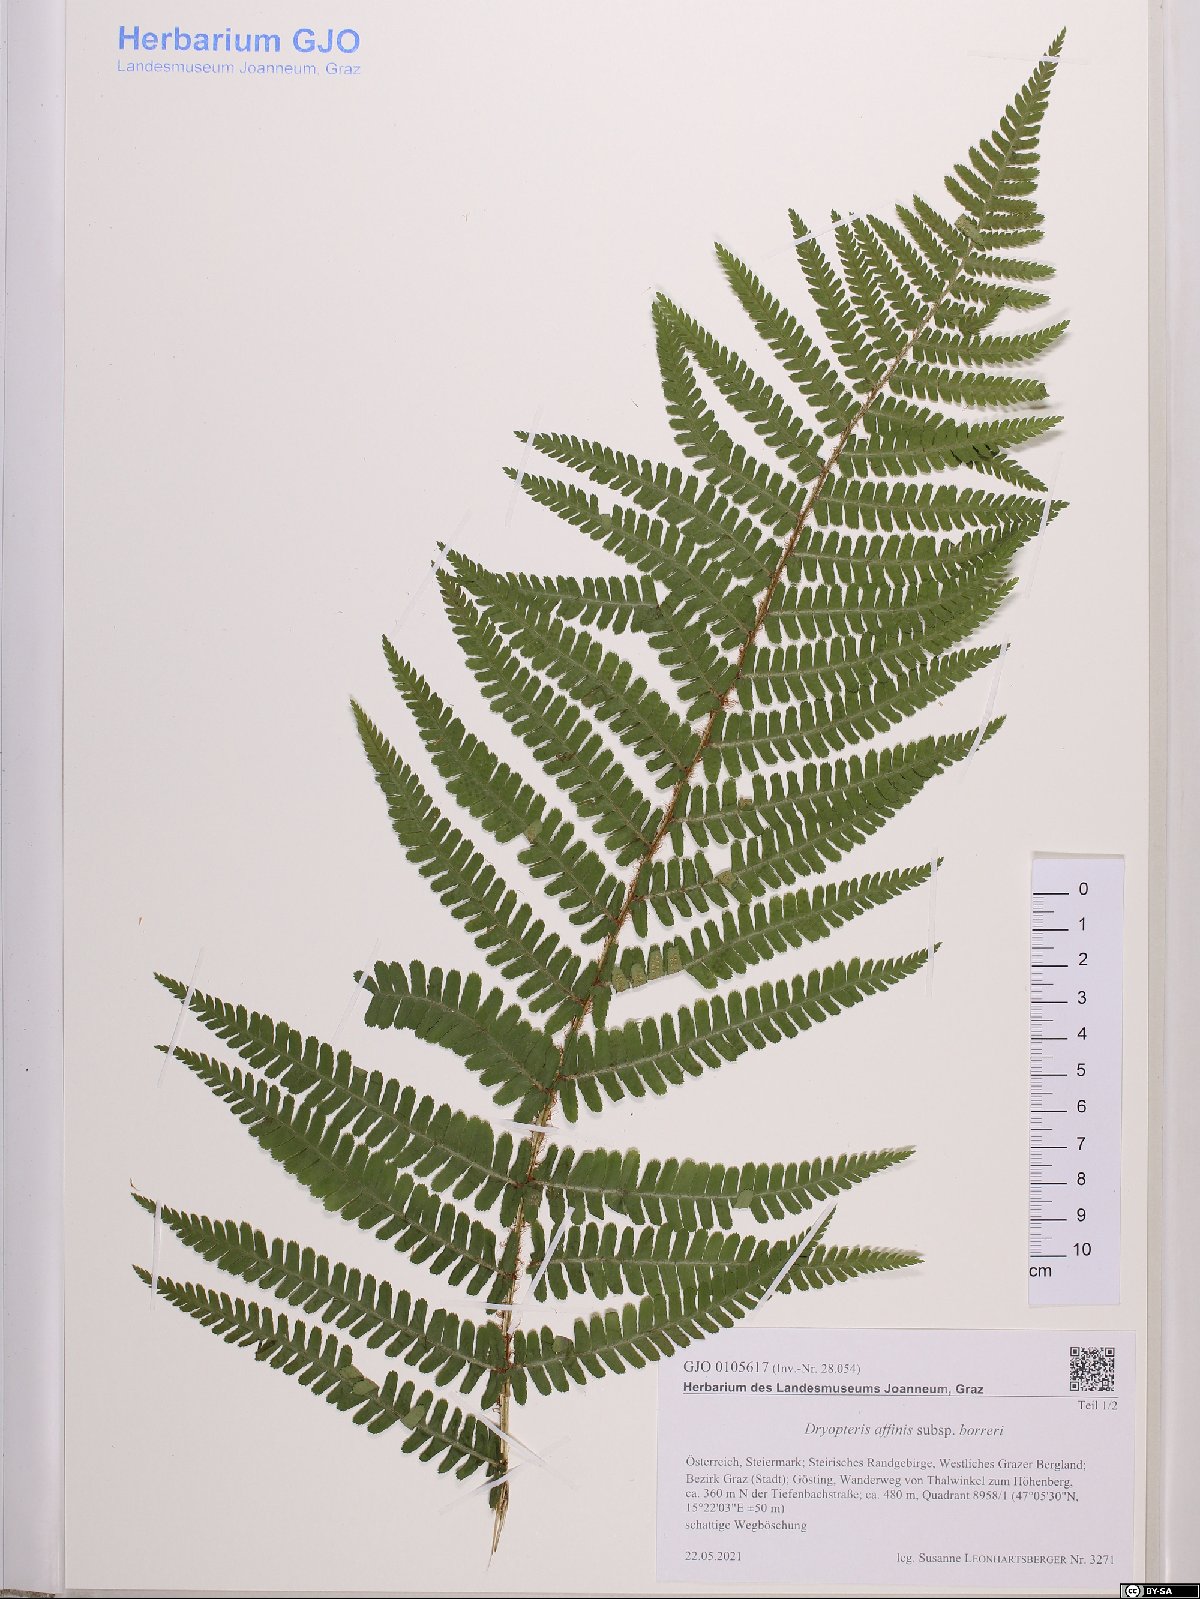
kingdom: Plantae
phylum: Tracheophyta
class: Polypodiopsida
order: Polypodiales
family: Dryopteridaceae
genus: Dryopteris
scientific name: Dryopteris borreri
